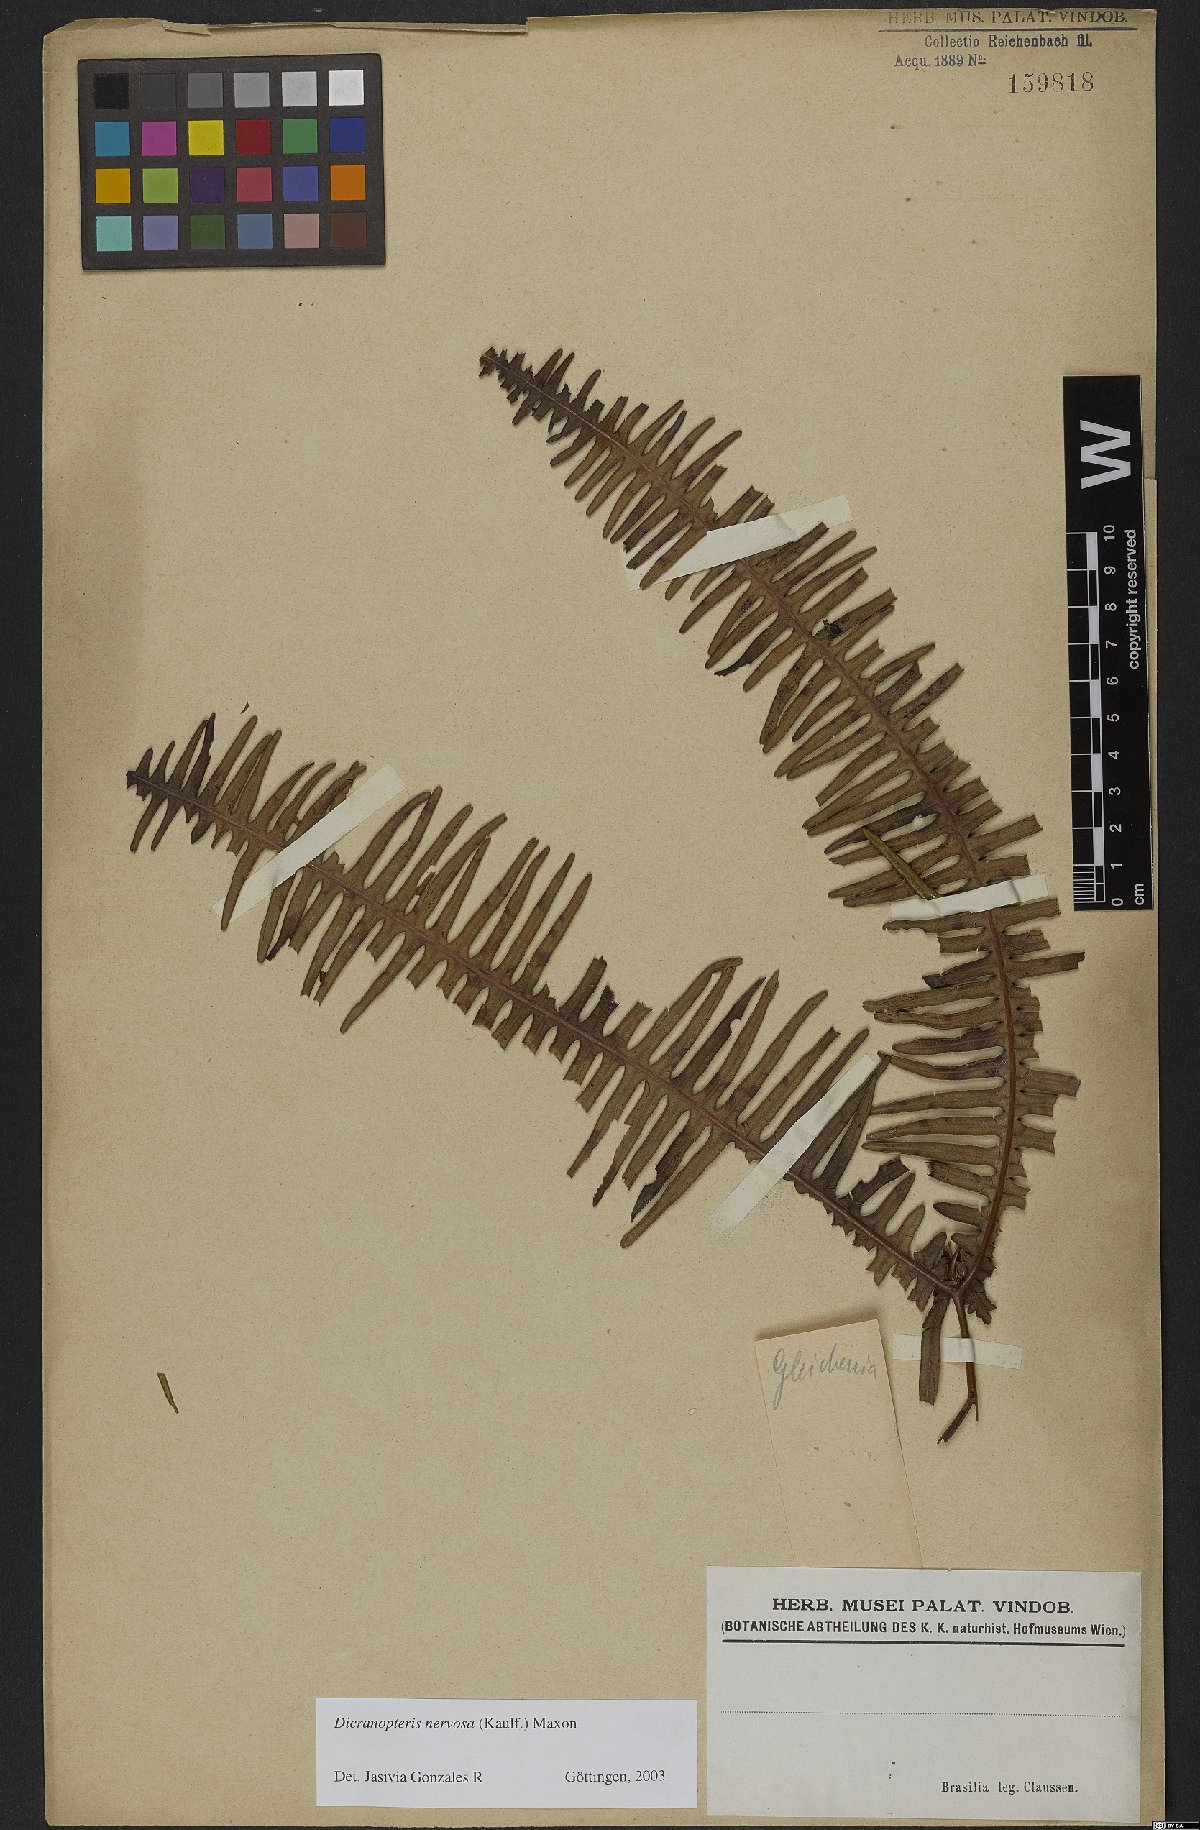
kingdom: Plantae
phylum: Tracheophyta
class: Polypodiopsida
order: Gleicheniales
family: Gleicheniaceae
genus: Dicranopteris
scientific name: Dicranopteris nervosa
